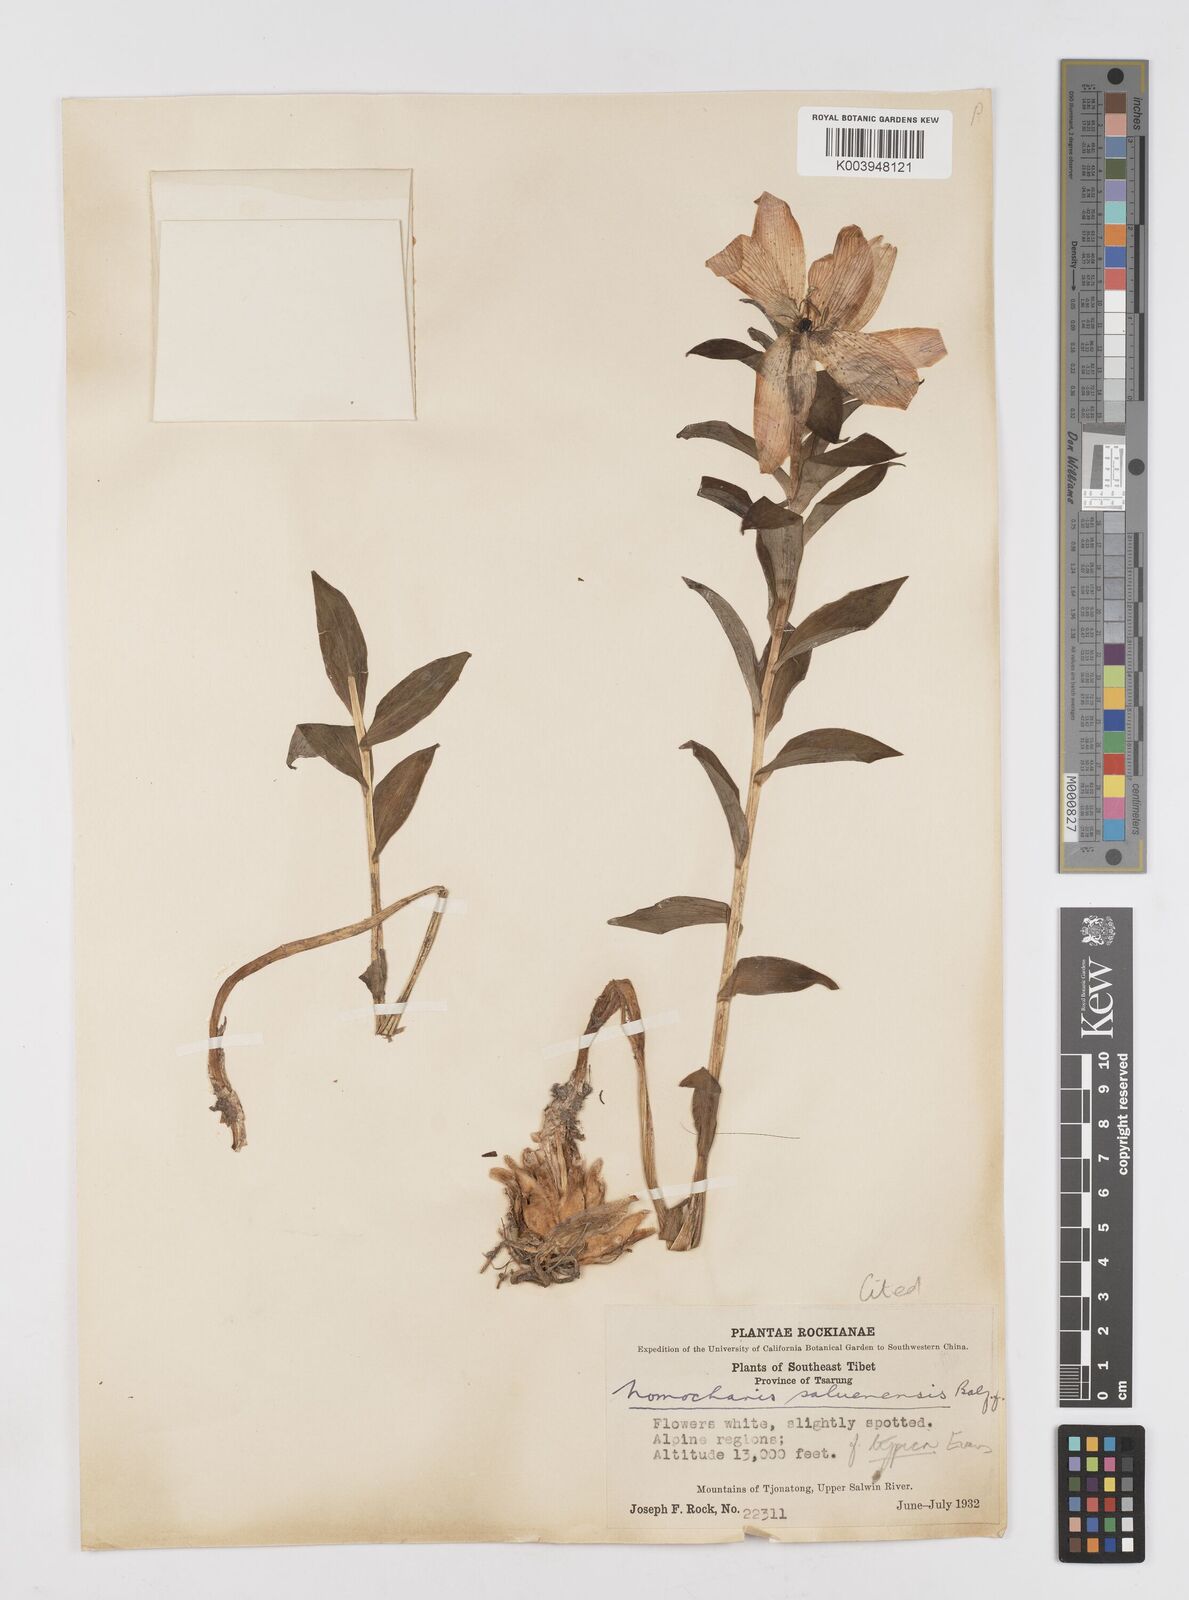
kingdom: Plantae
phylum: Tracheophyta
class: Liliopsida
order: Liliales
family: Liliaceae
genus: Lilium
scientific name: Lilium saluenense
